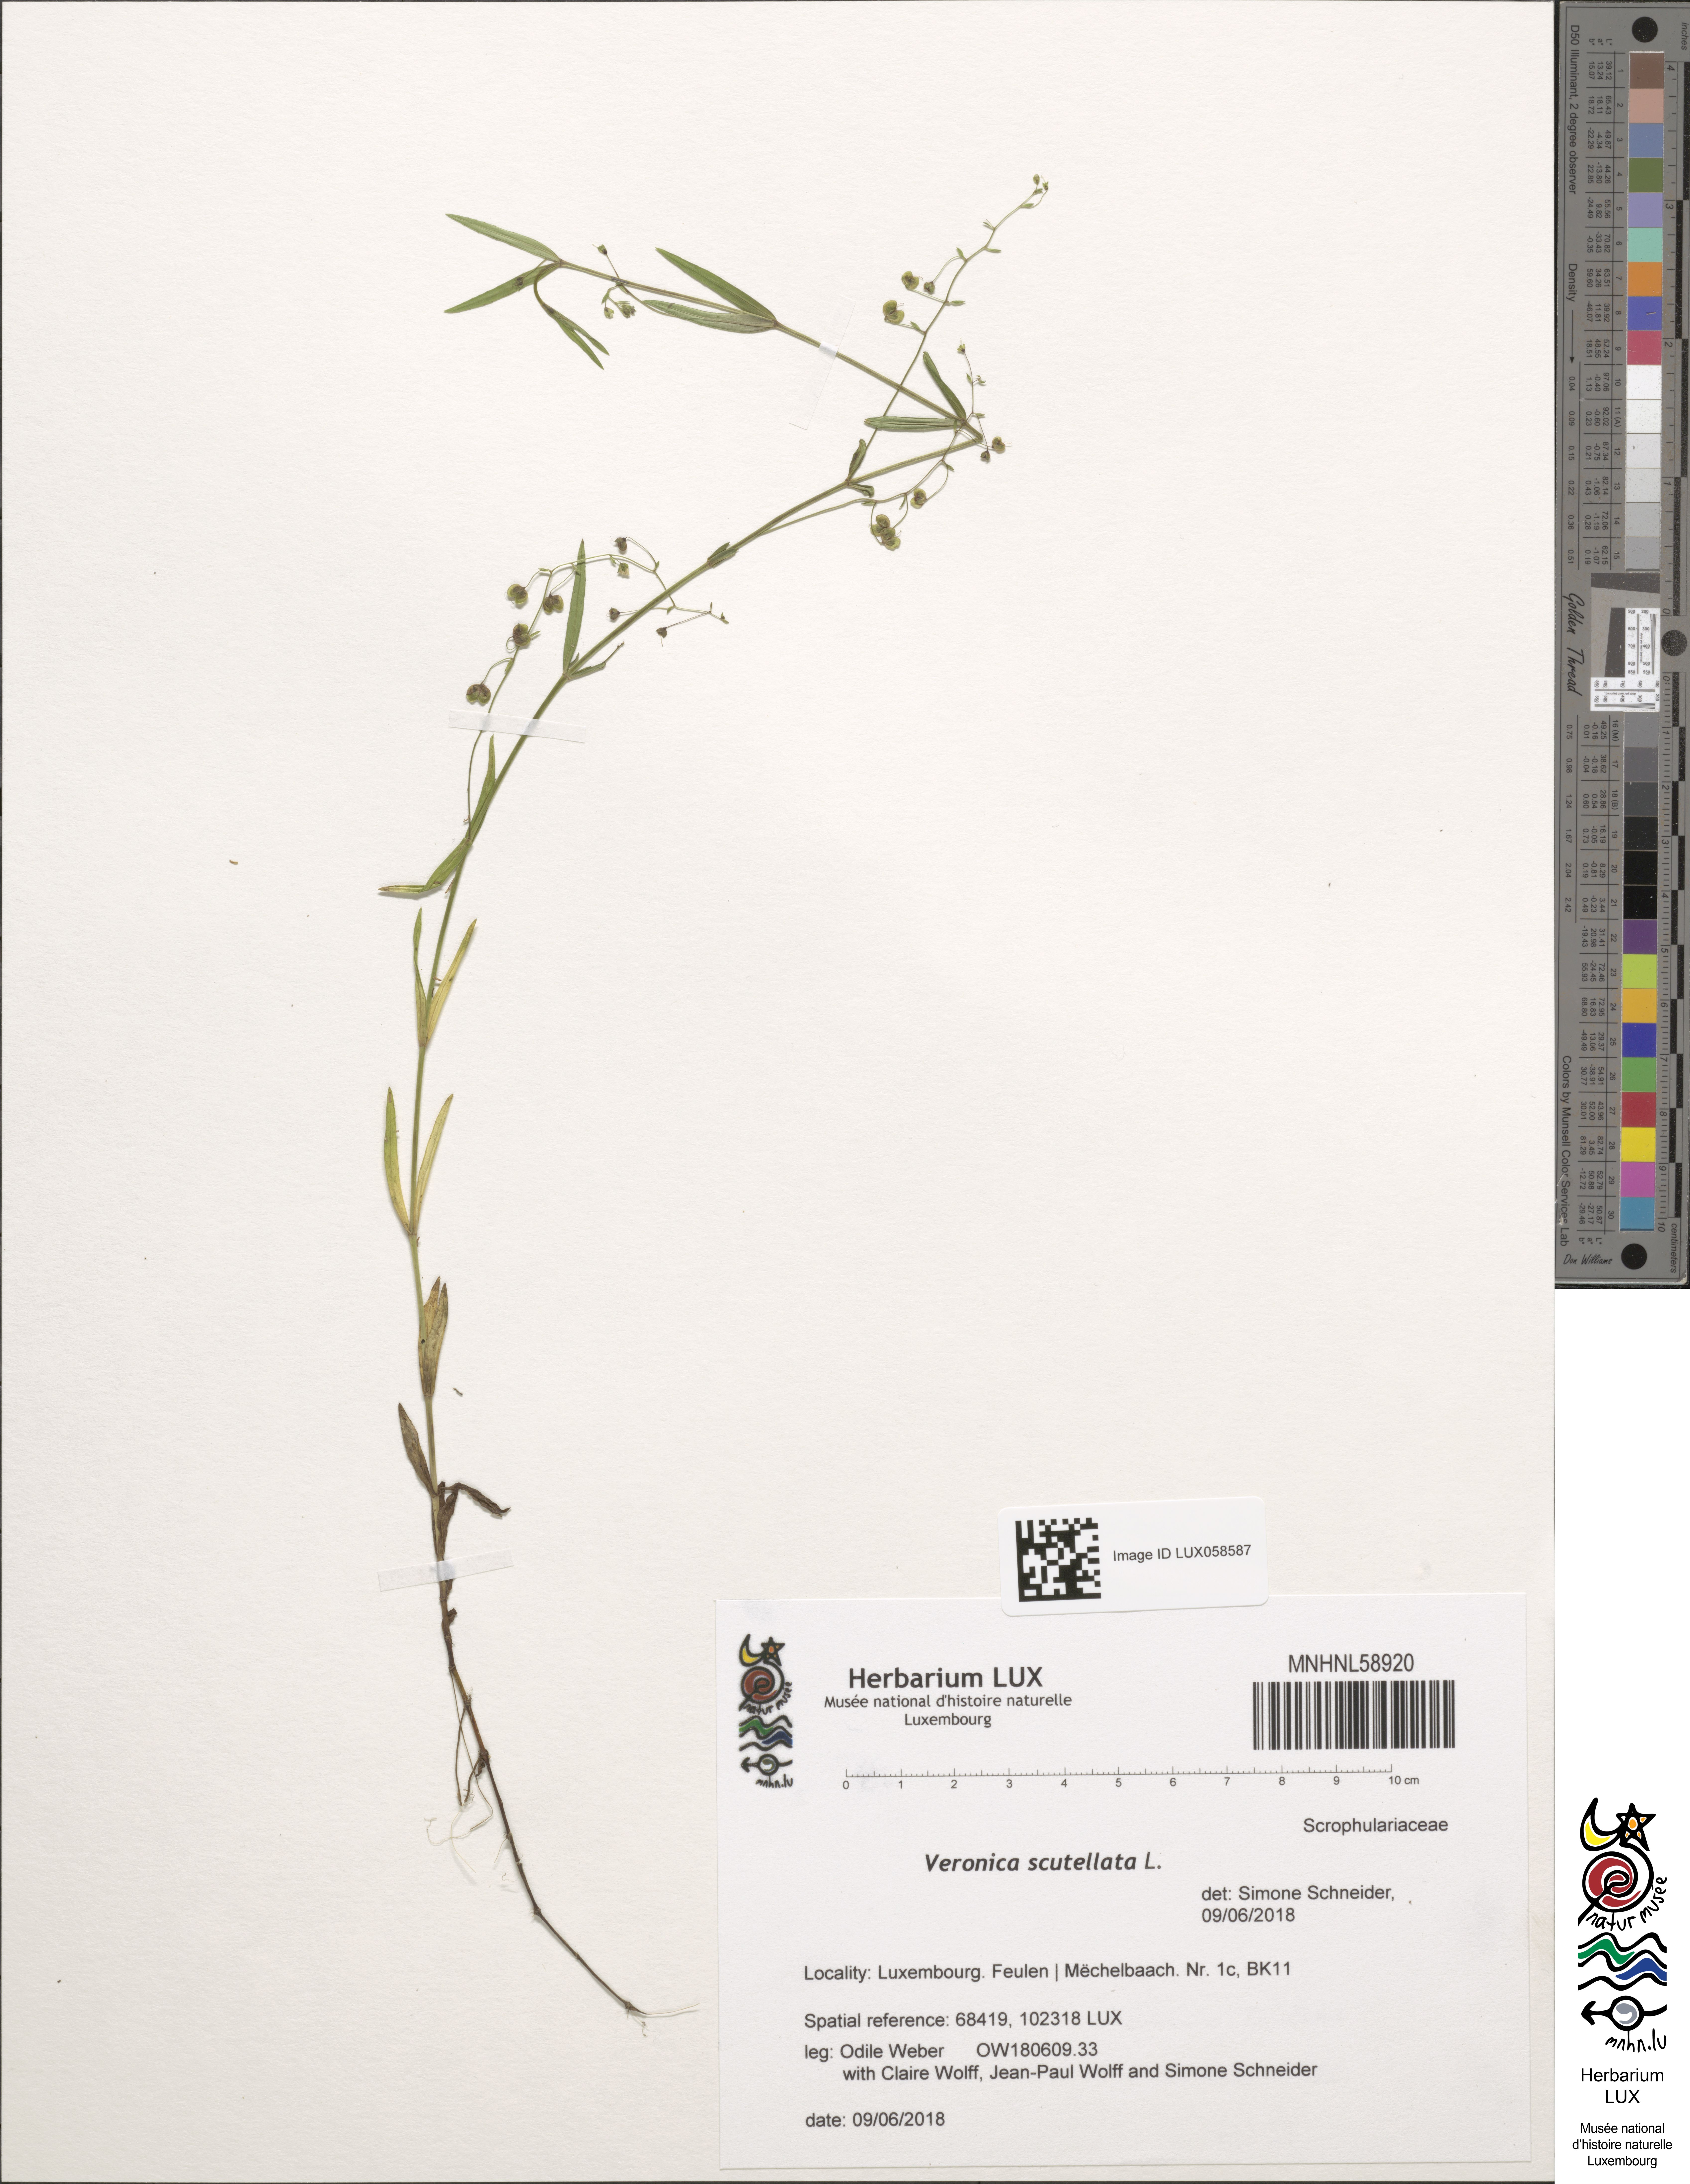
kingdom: Plantae
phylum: Tracheophyta
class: Magnoliopsida
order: Lamiales
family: Plantaginaceae
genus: Veronica
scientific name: Veronica scutellata
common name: Marsh speedwell
